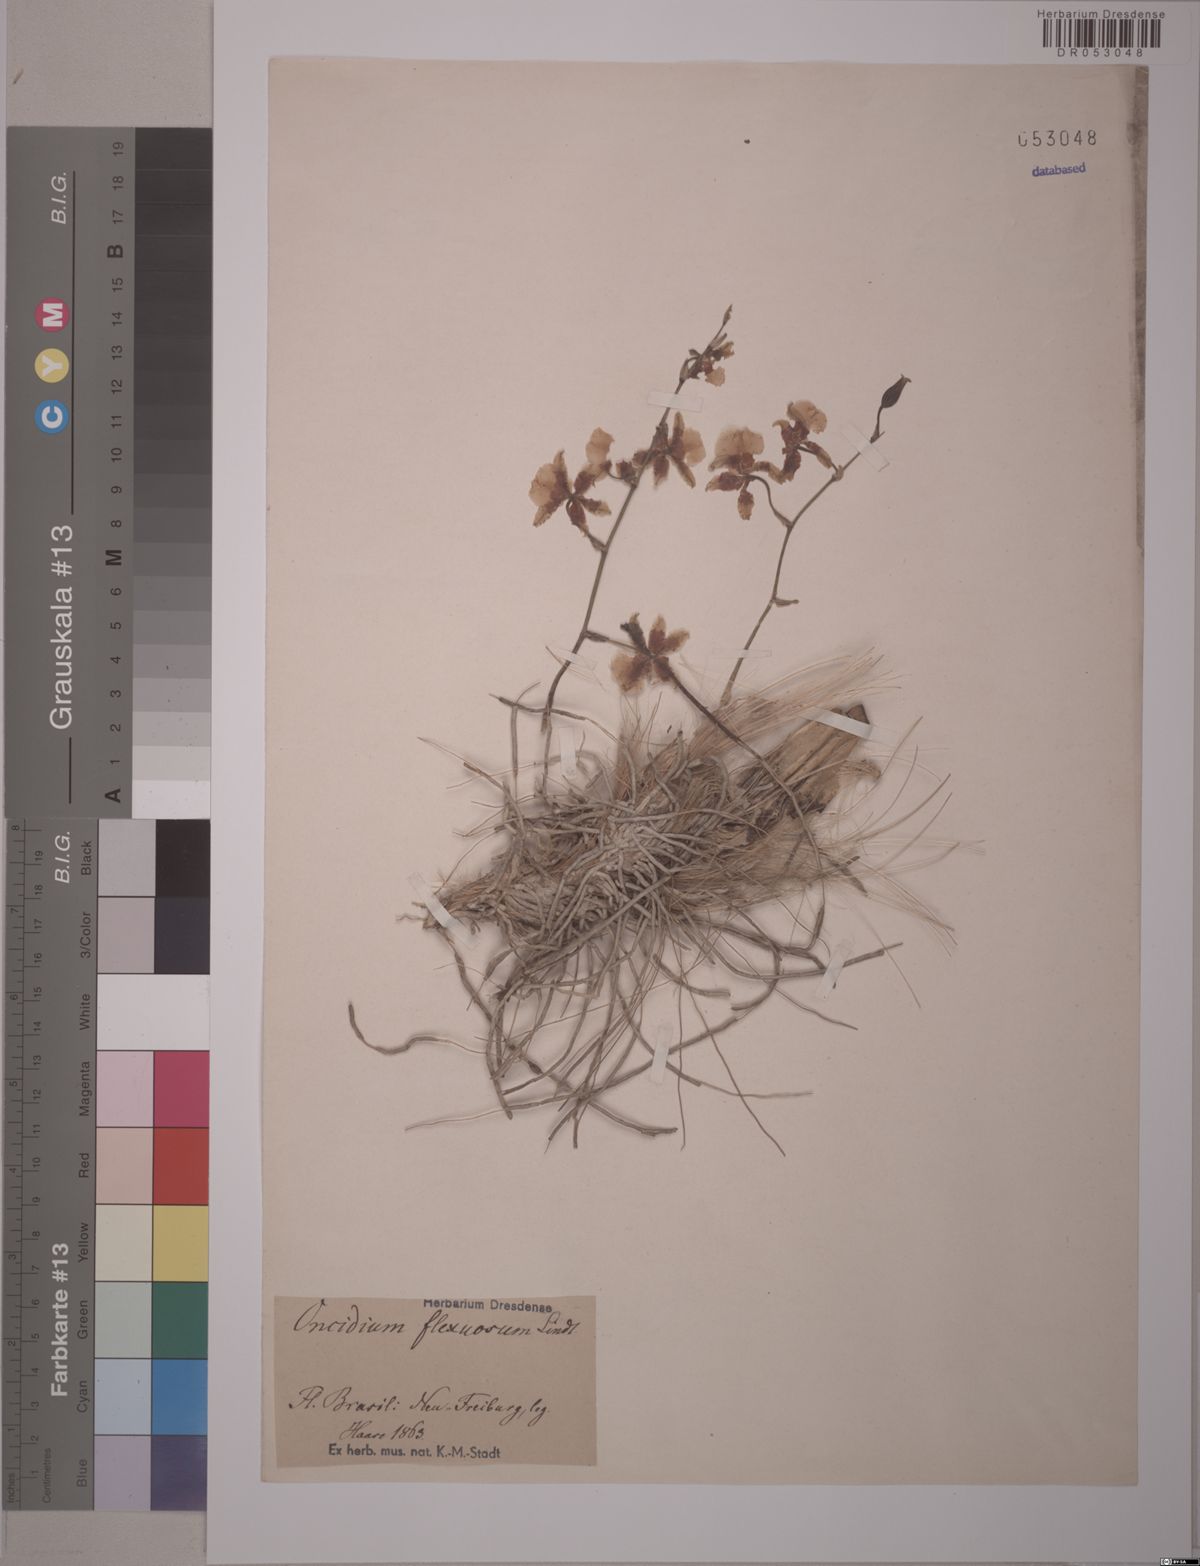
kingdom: Plantae
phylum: Tracheophyta
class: Liliopsida
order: Asparagales
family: Orchidaceae
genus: Gomesa
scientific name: Gomesa flexuosa
